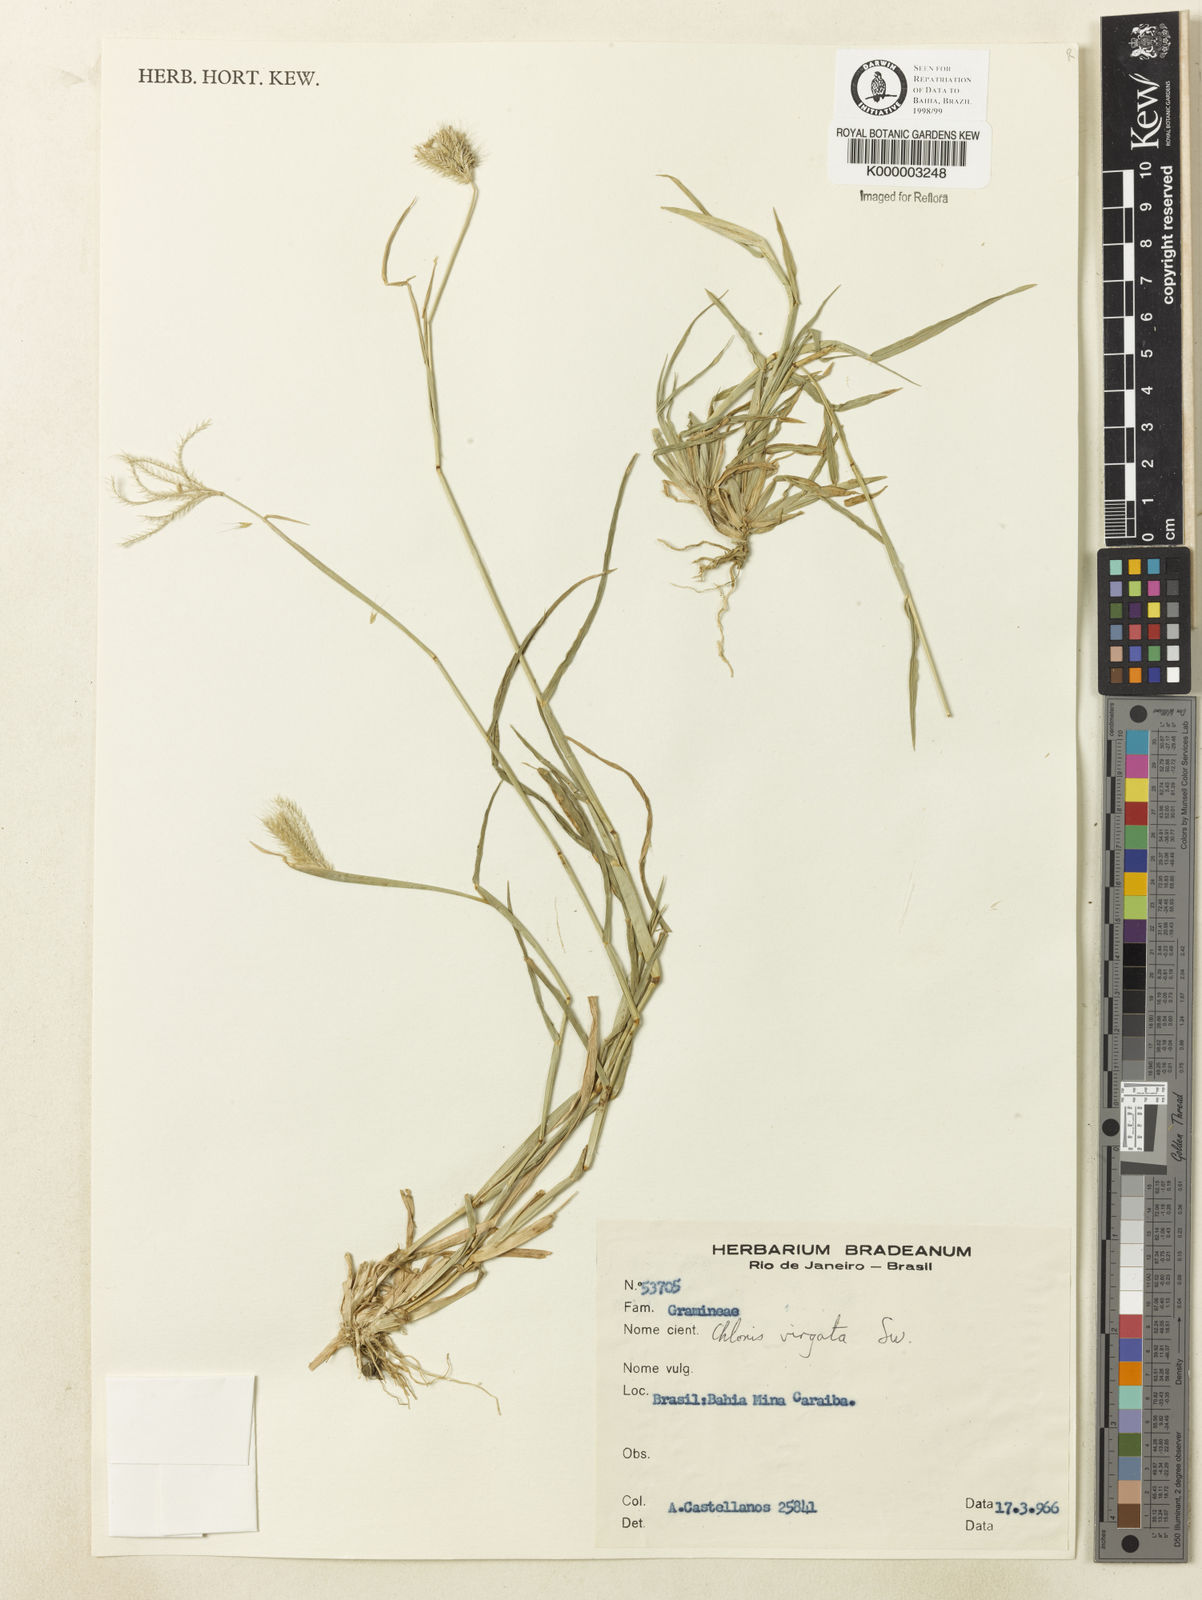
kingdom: Plantae
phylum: Tracheophyta
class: Liliopsida
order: Poales
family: Poaceae
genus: Chloris
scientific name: Chloris virgata
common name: Feathery rhodes-grass
